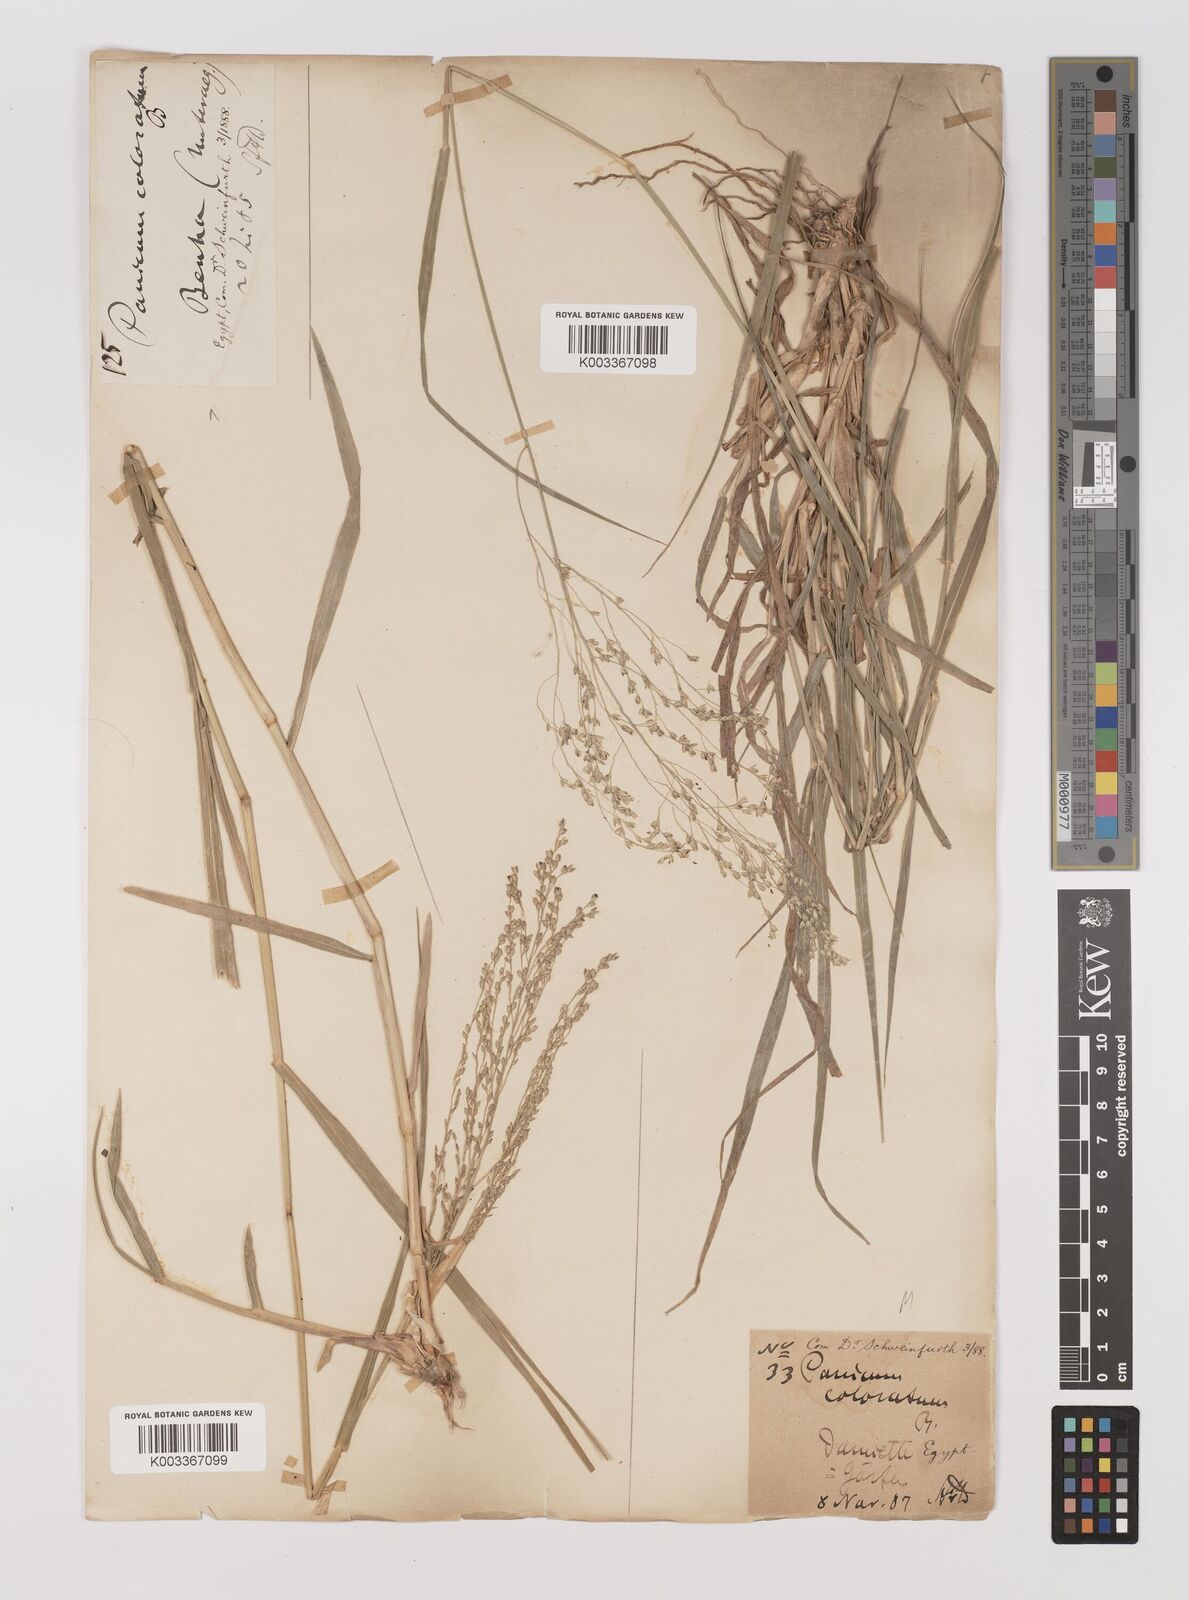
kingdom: Plantae
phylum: Tracheophyta
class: Liliopsida
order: Poales
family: Poaceae
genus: Panicum
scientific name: Panicum coloratum
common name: Kleingrass
